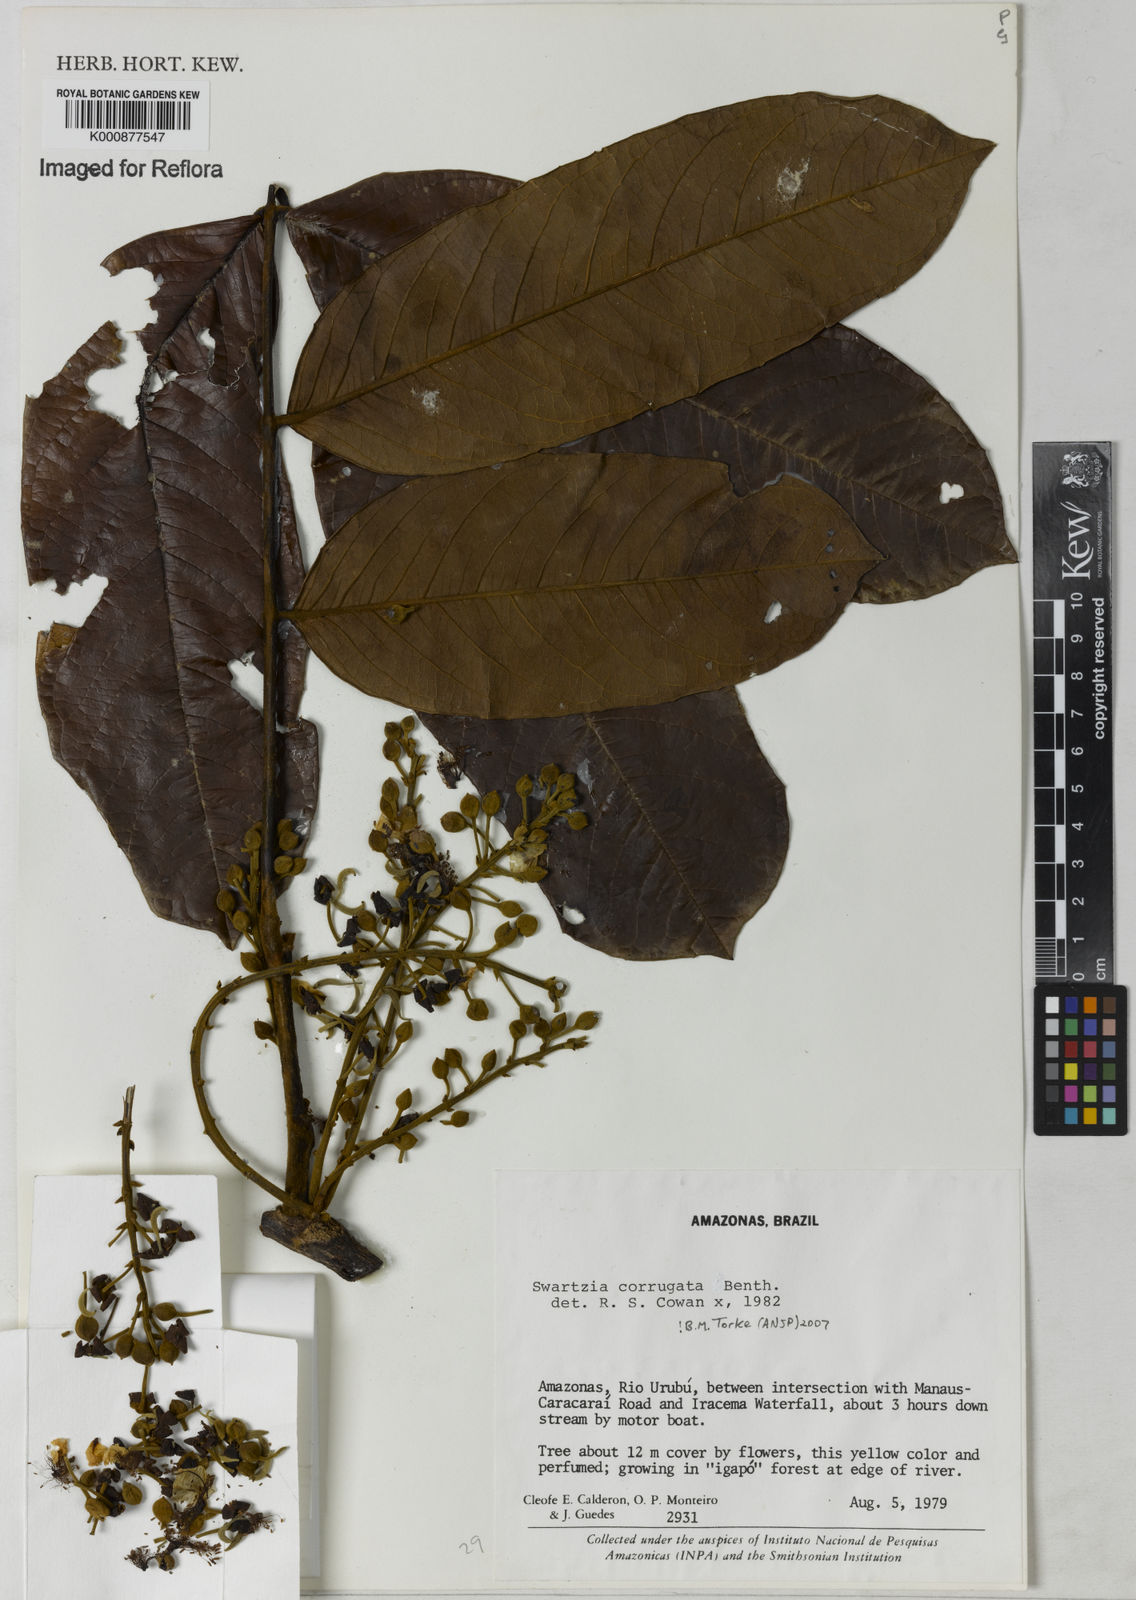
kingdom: Plantae
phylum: Tracheophyta
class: Magnoliopsida
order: Fabales
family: Fabaceae
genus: Swartzia
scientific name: Swartzia corrugata
